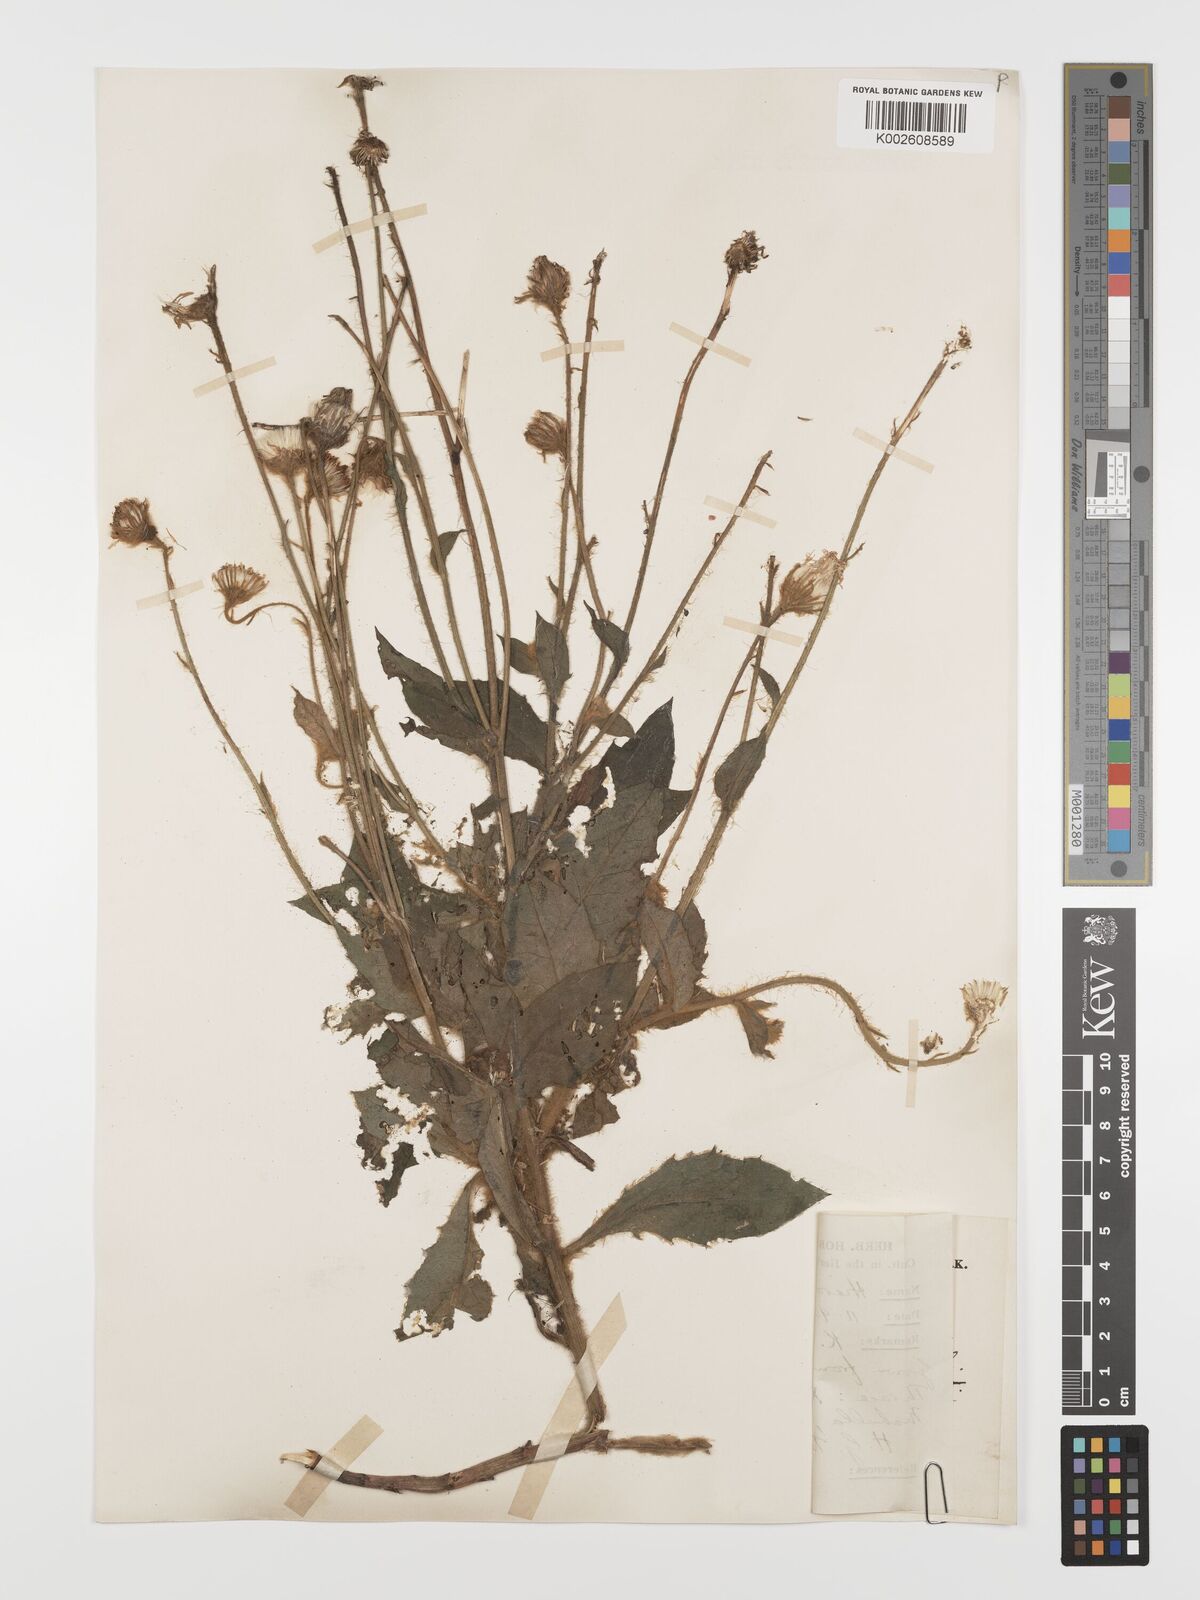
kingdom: Plantae
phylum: Tracheophyta
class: Magnoliopsida
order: Asterales
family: Asteraceae
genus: Hieracium
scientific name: Hieracium pannosum
